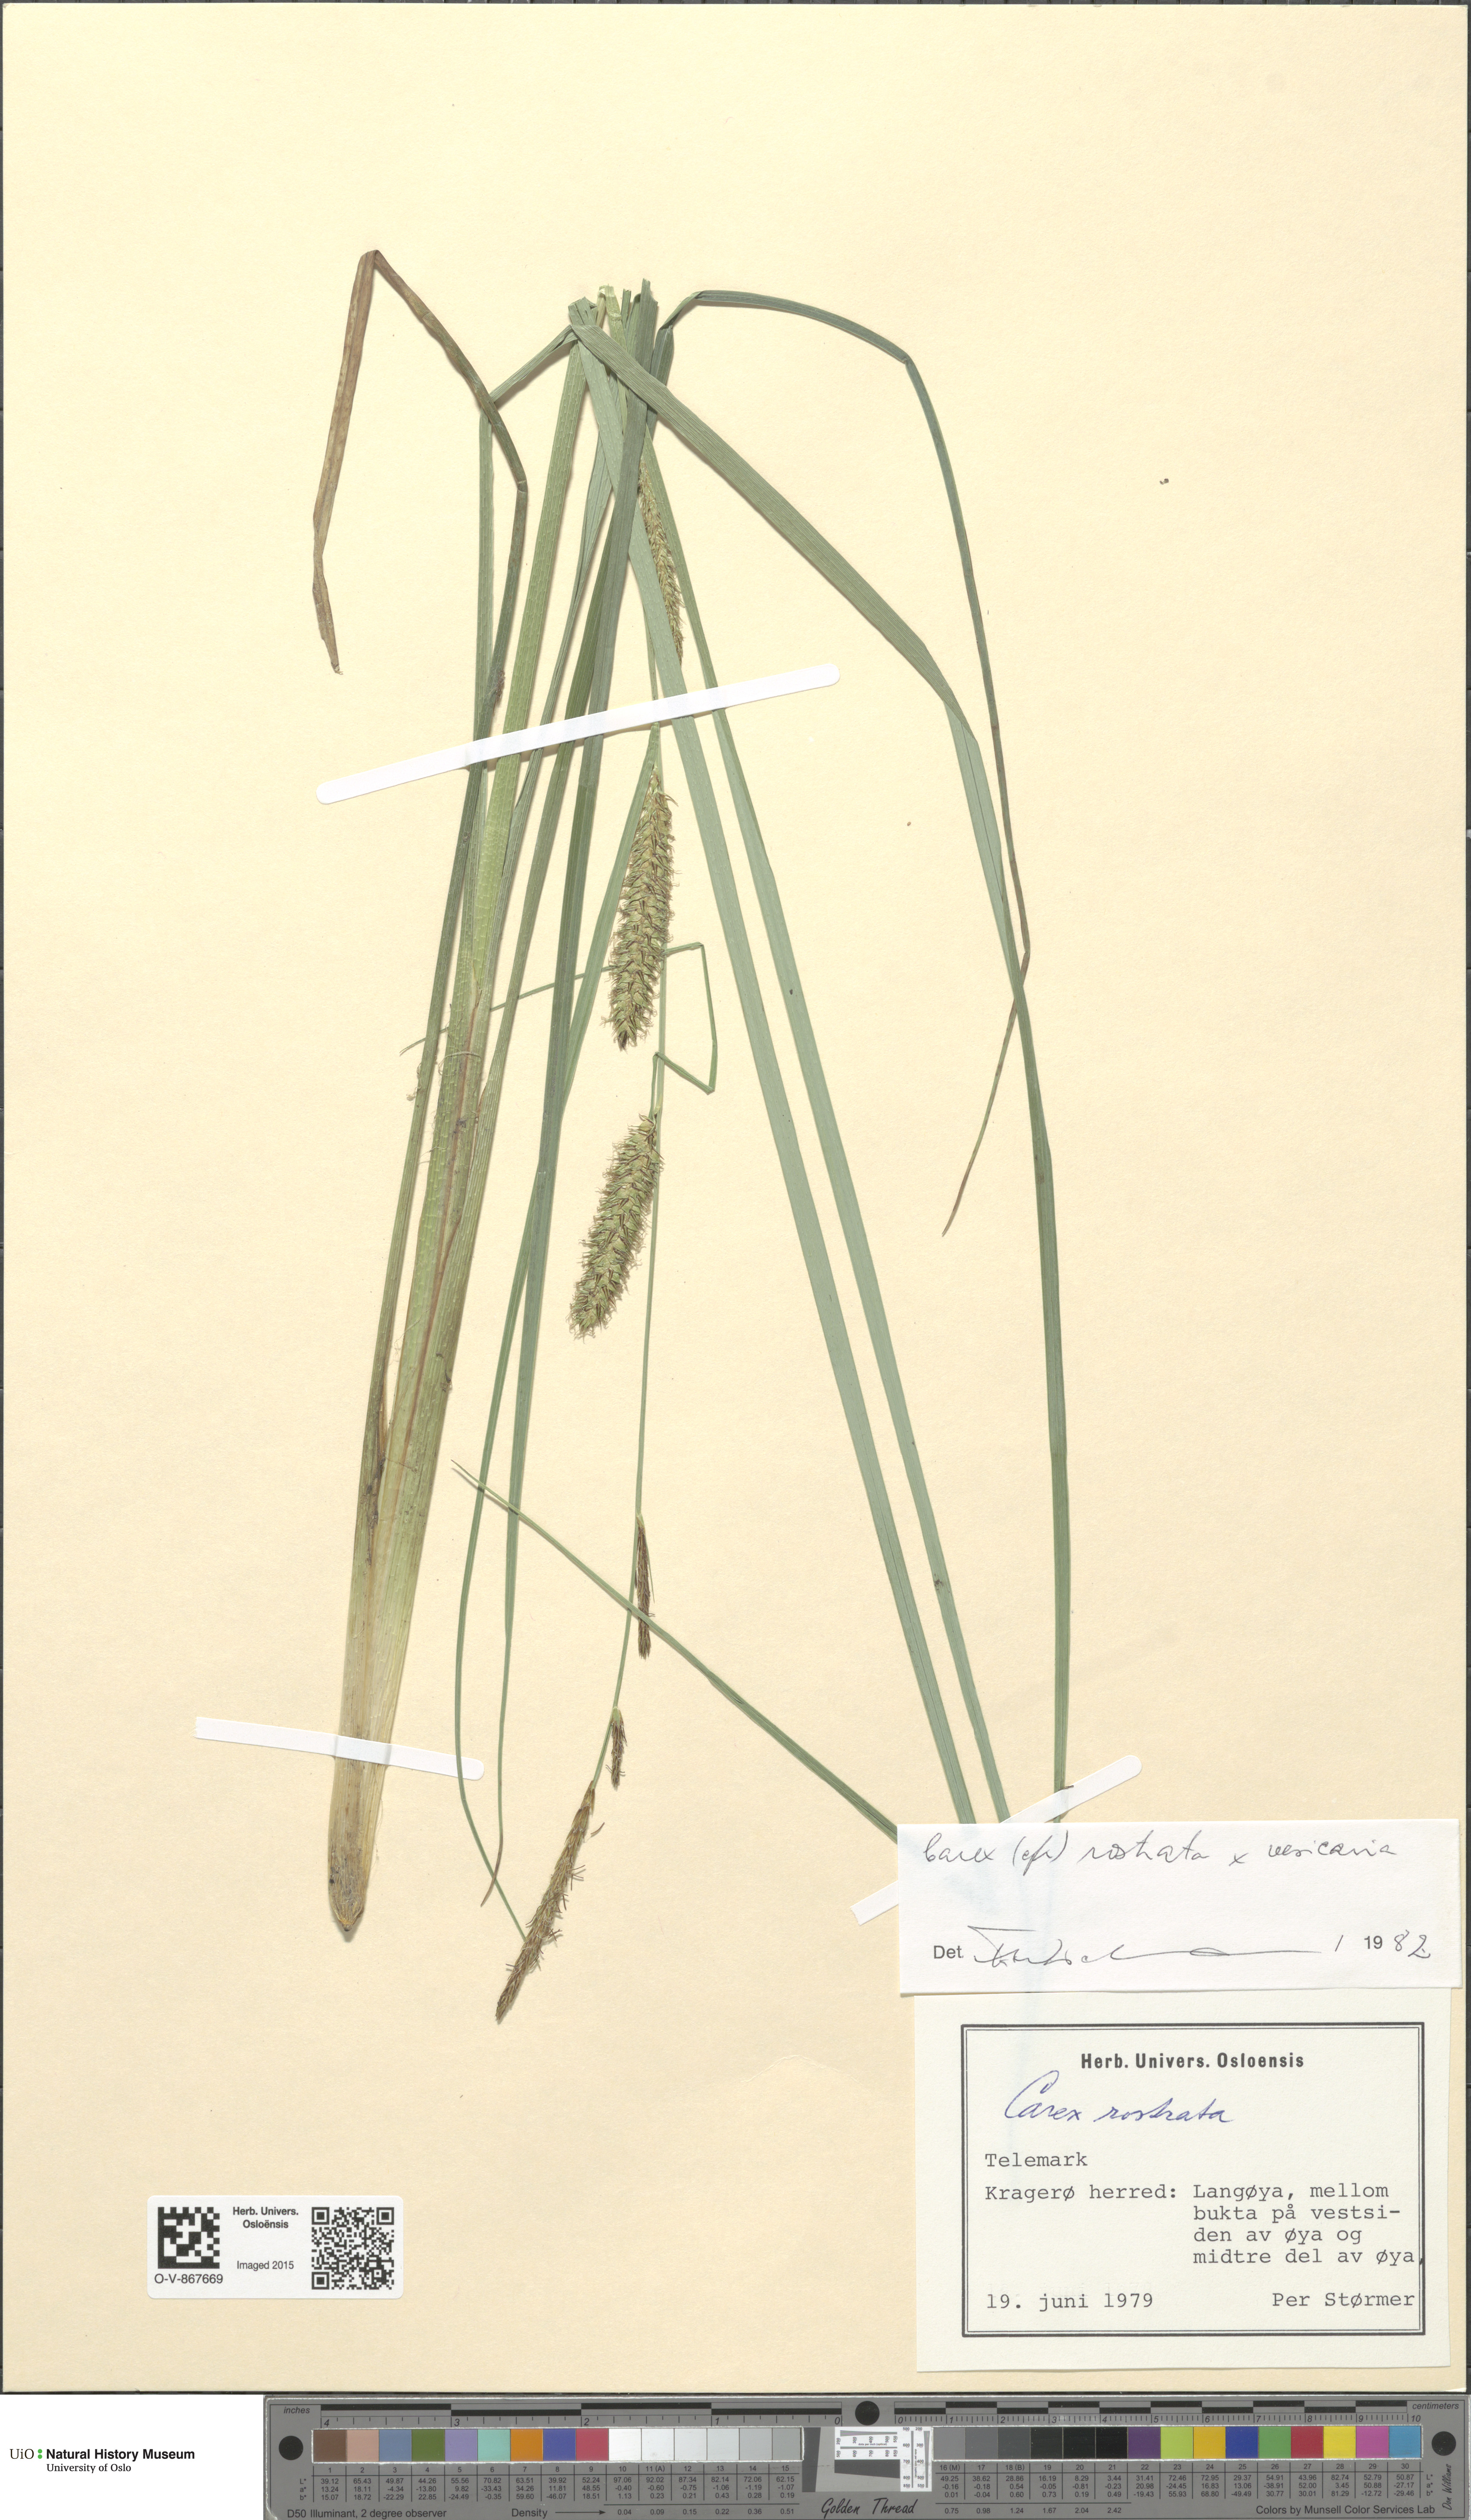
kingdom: Plantae
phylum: Tracheophyta
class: Liliopsida
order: Poales
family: Cyperaceae
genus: Carex
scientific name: Carex
